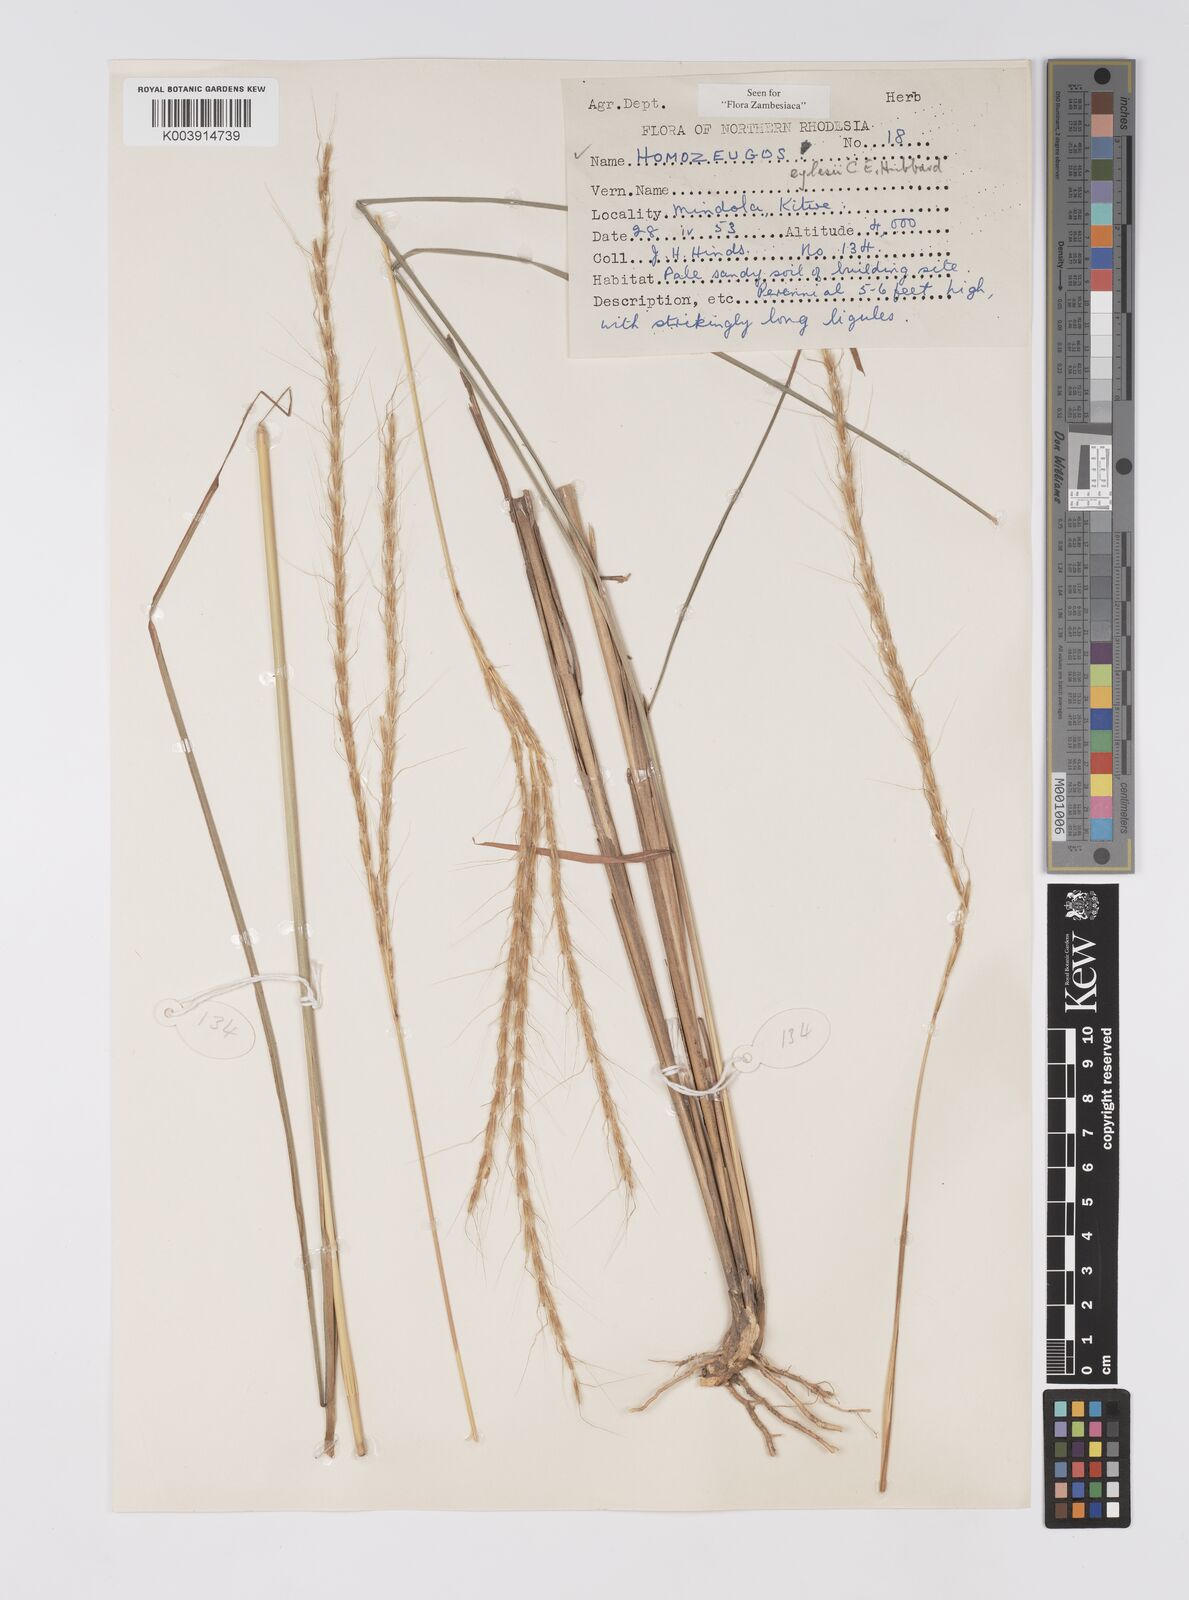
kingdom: Plantae
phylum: Tracheophyta
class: Liliopsida
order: Poales
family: Poaceae
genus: Homozeugos
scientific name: Homozeugos eylesii
